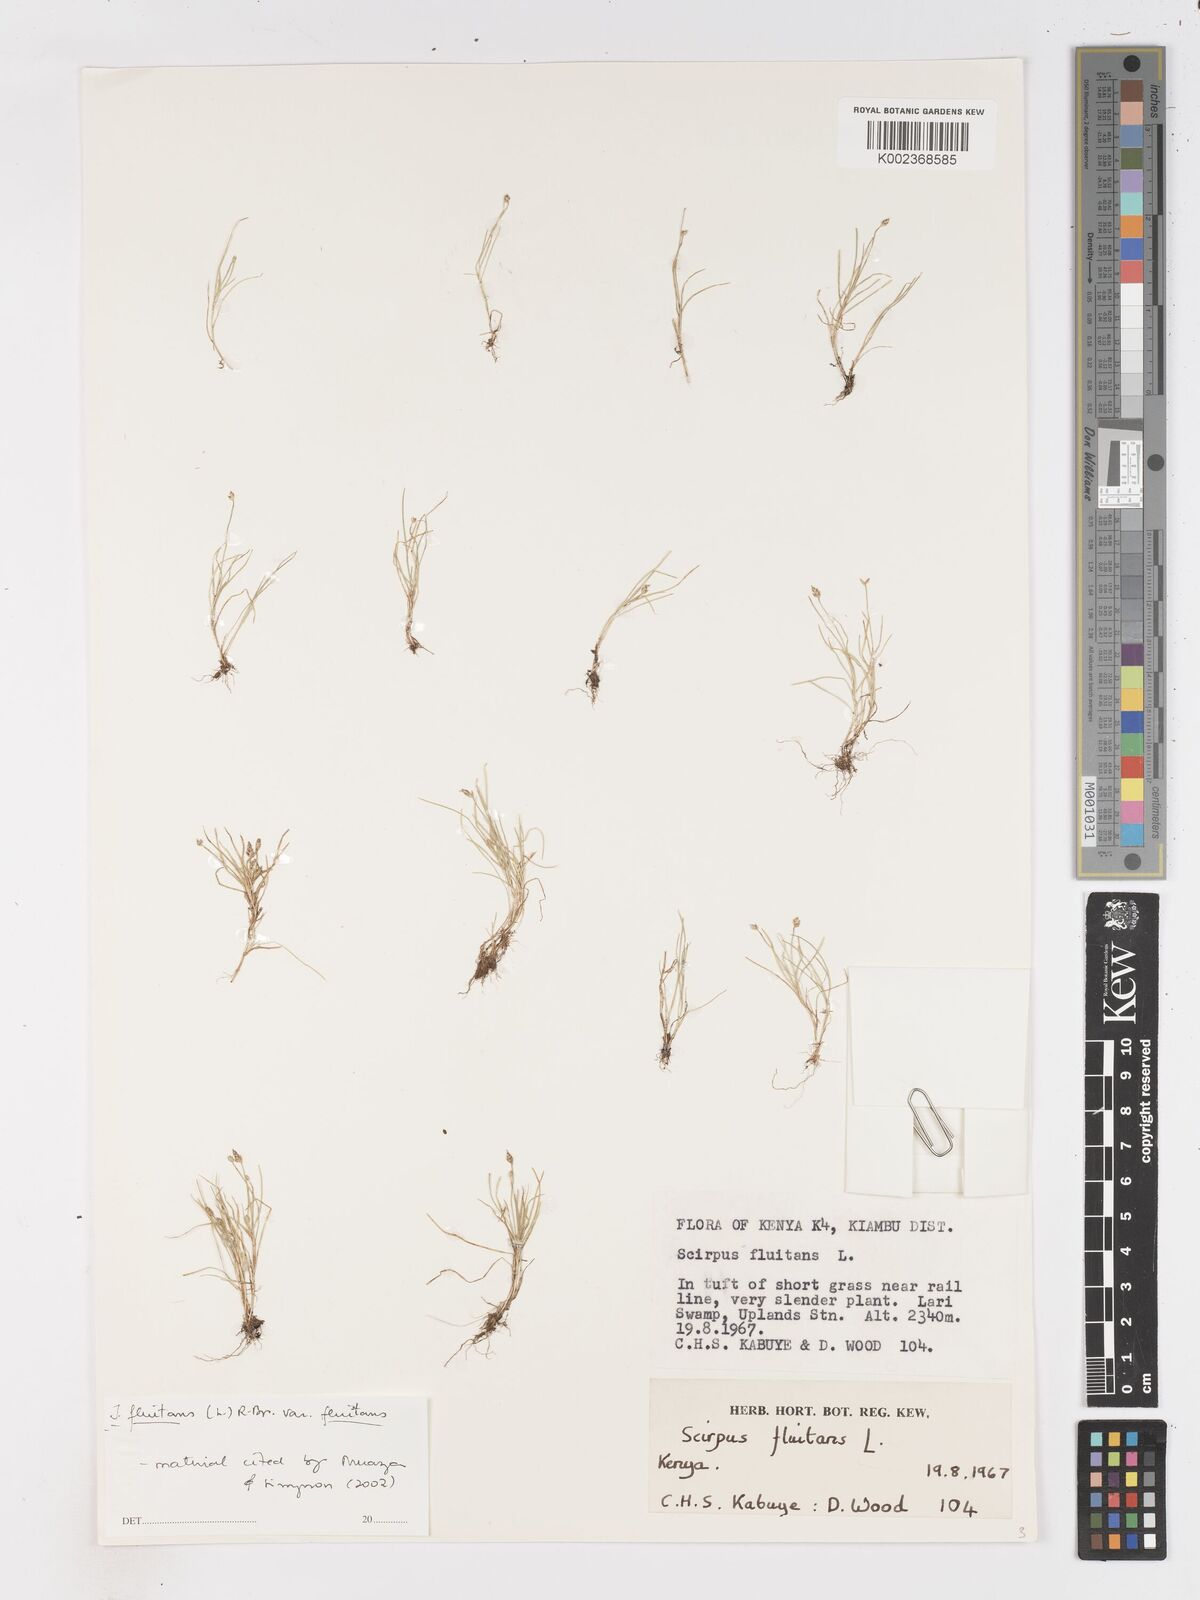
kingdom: Plantae
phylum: Tracheophyta
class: Liliopsida
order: Poales
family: Cyperaceae
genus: Isolepis
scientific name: Isolepis fluitans
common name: Floating club-rush
